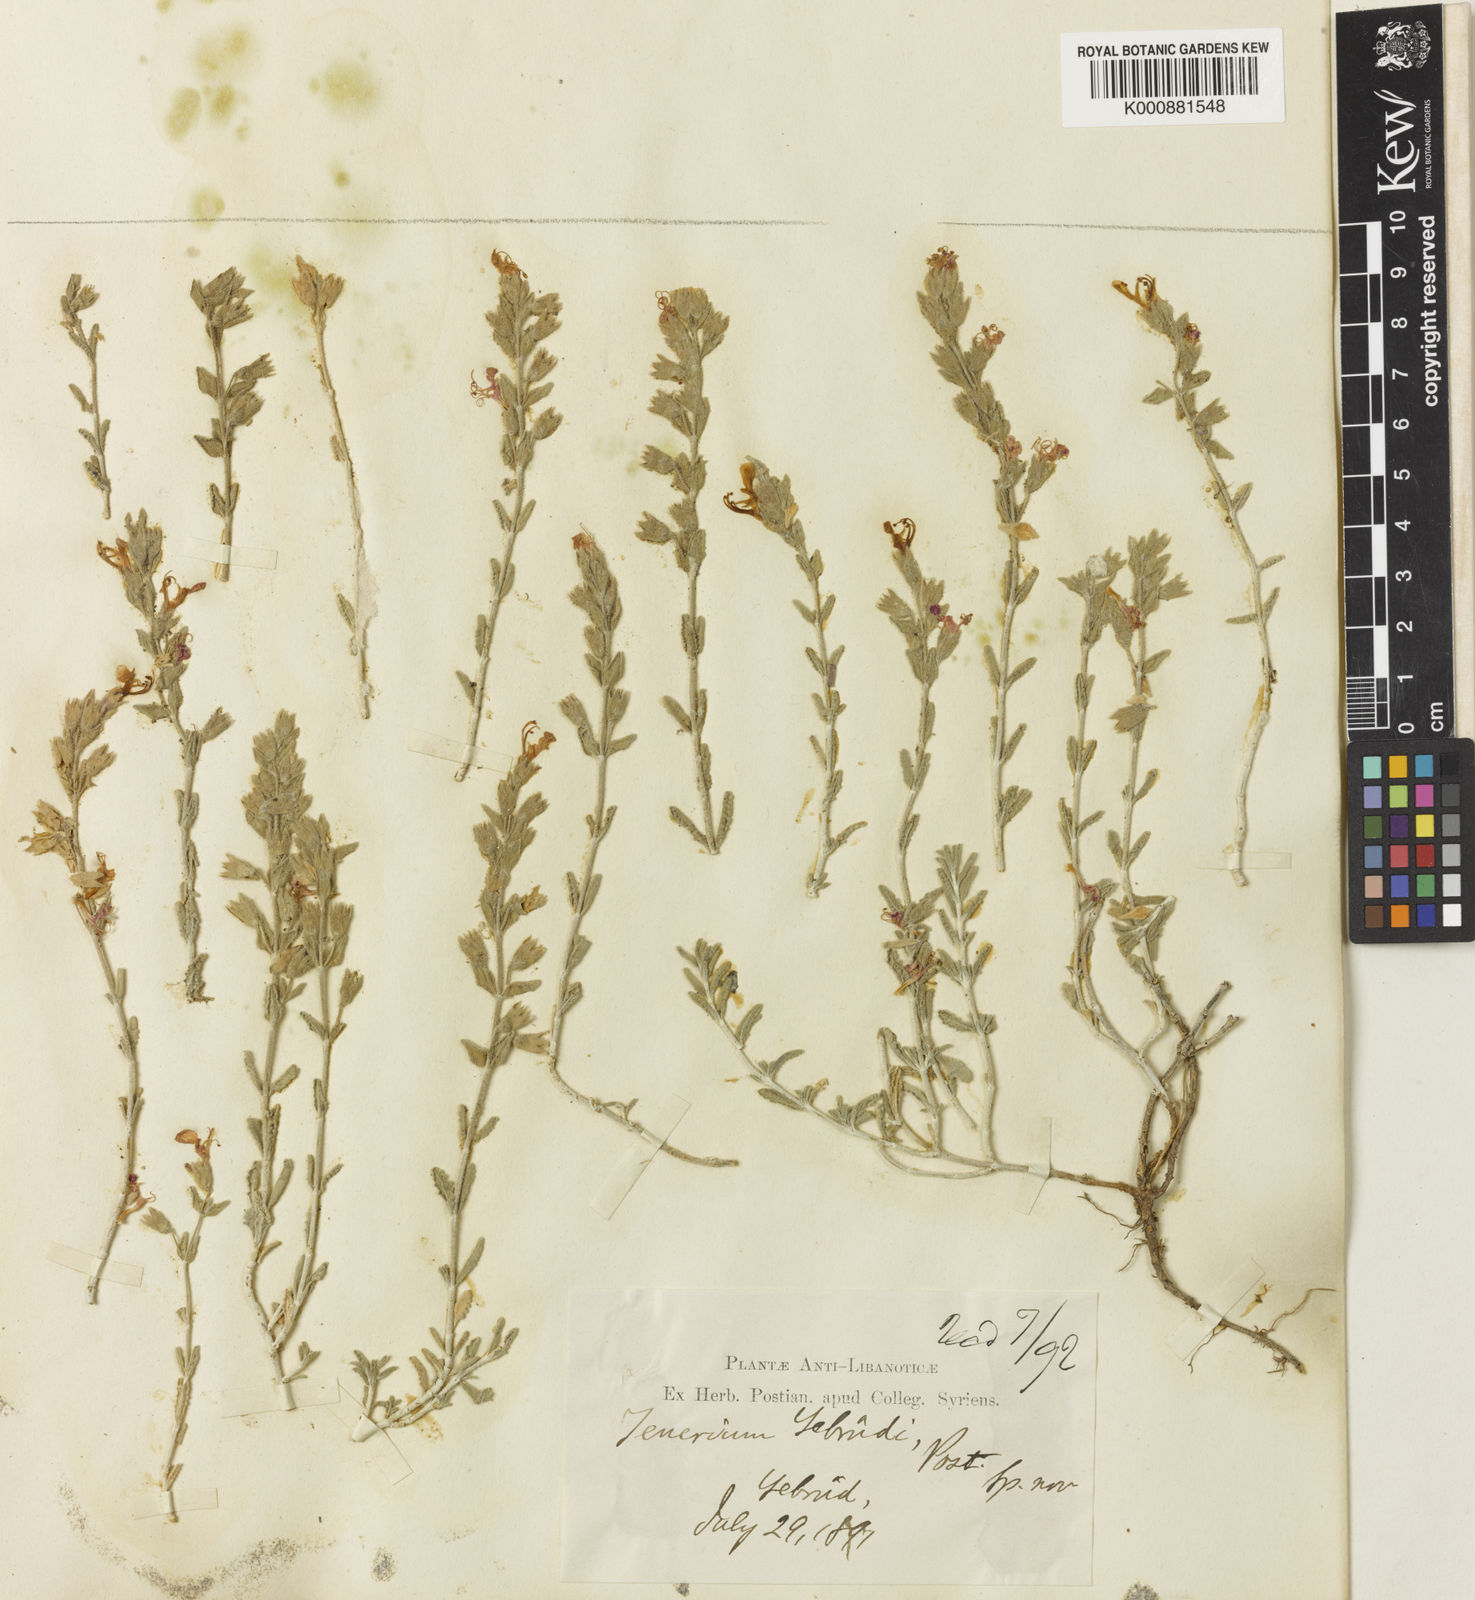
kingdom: Plantae
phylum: Tracheophyta
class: Magnoliopsida
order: Lamiales
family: Lamiaceae
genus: Teucrium
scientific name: Teucrium
